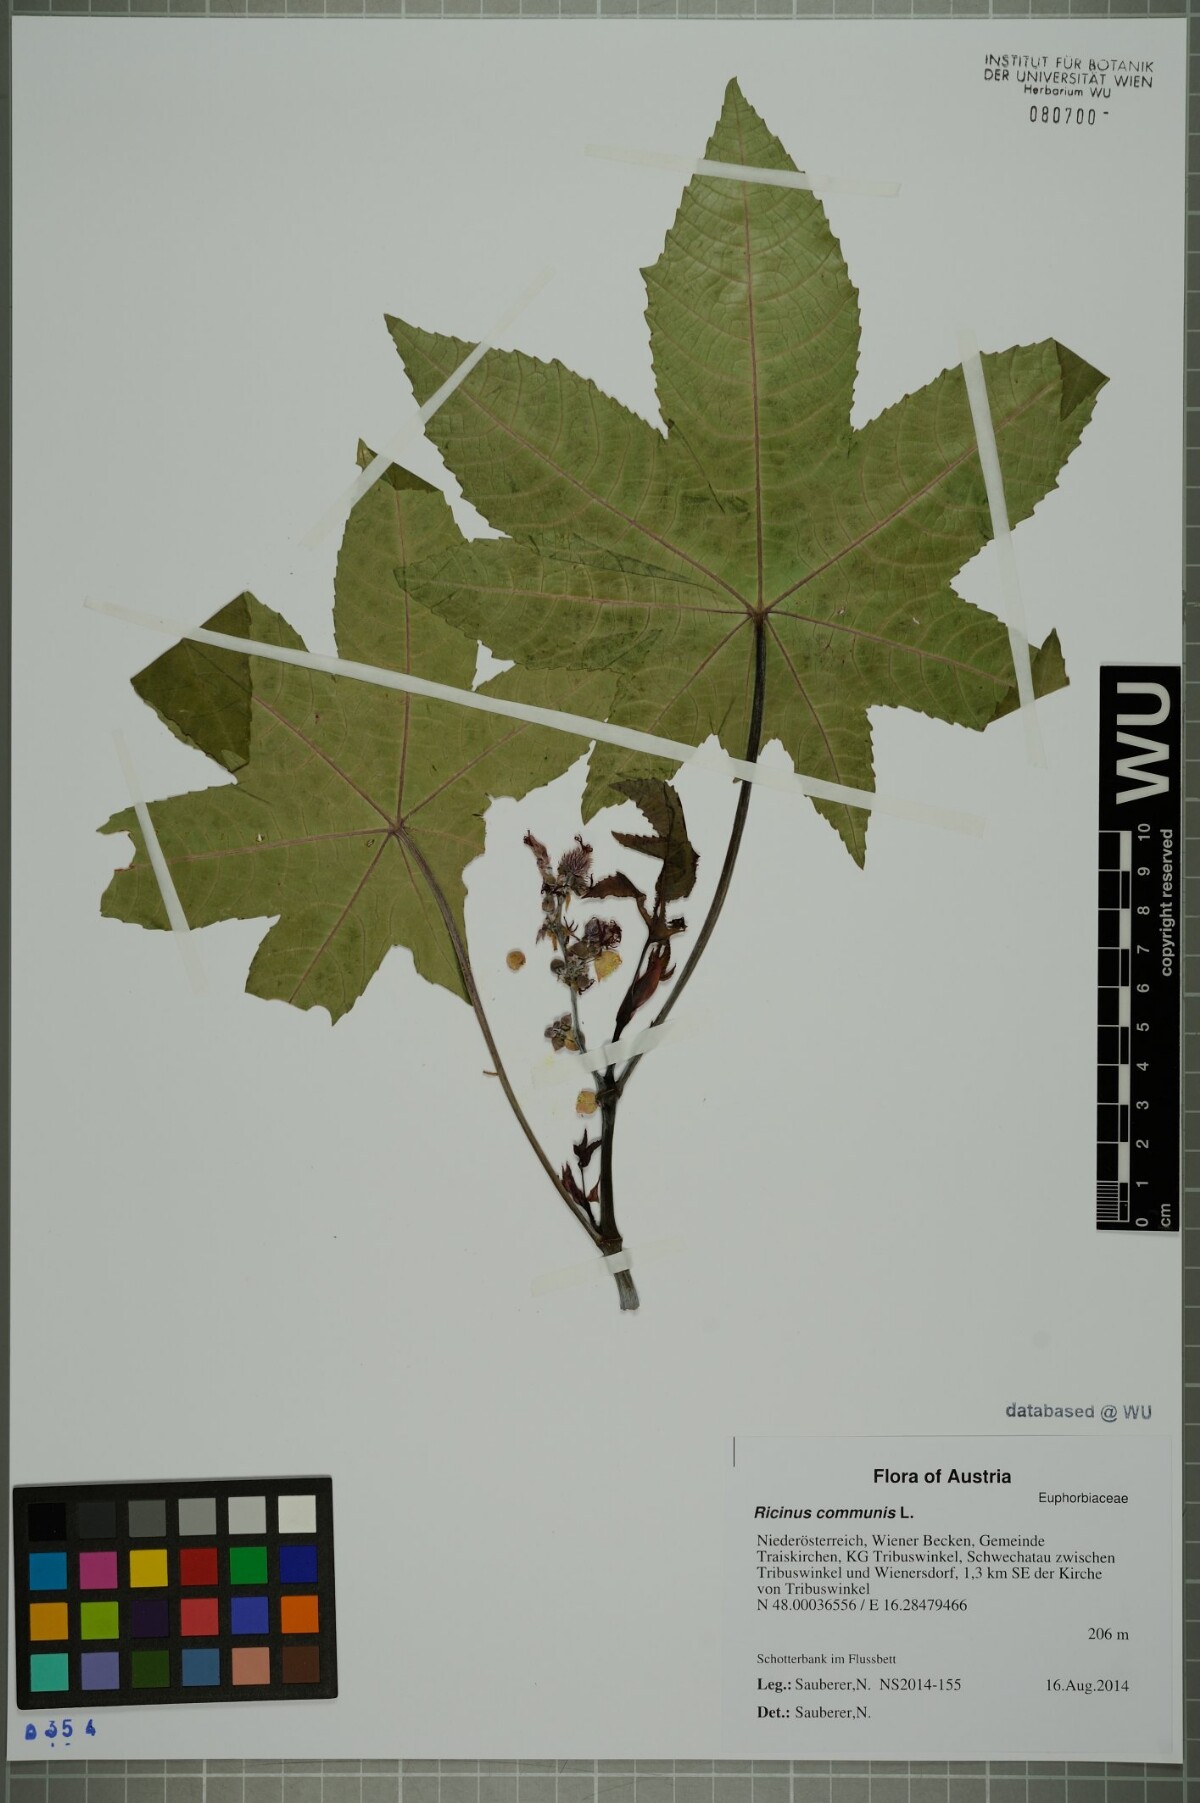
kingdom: Plantae
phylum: Tracheophyta
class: Magnoliopsida
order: Malpighiales
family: Euphorbiaceae
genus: Ricinus
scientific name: Ricinus communis
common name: Castor-oil-plant
